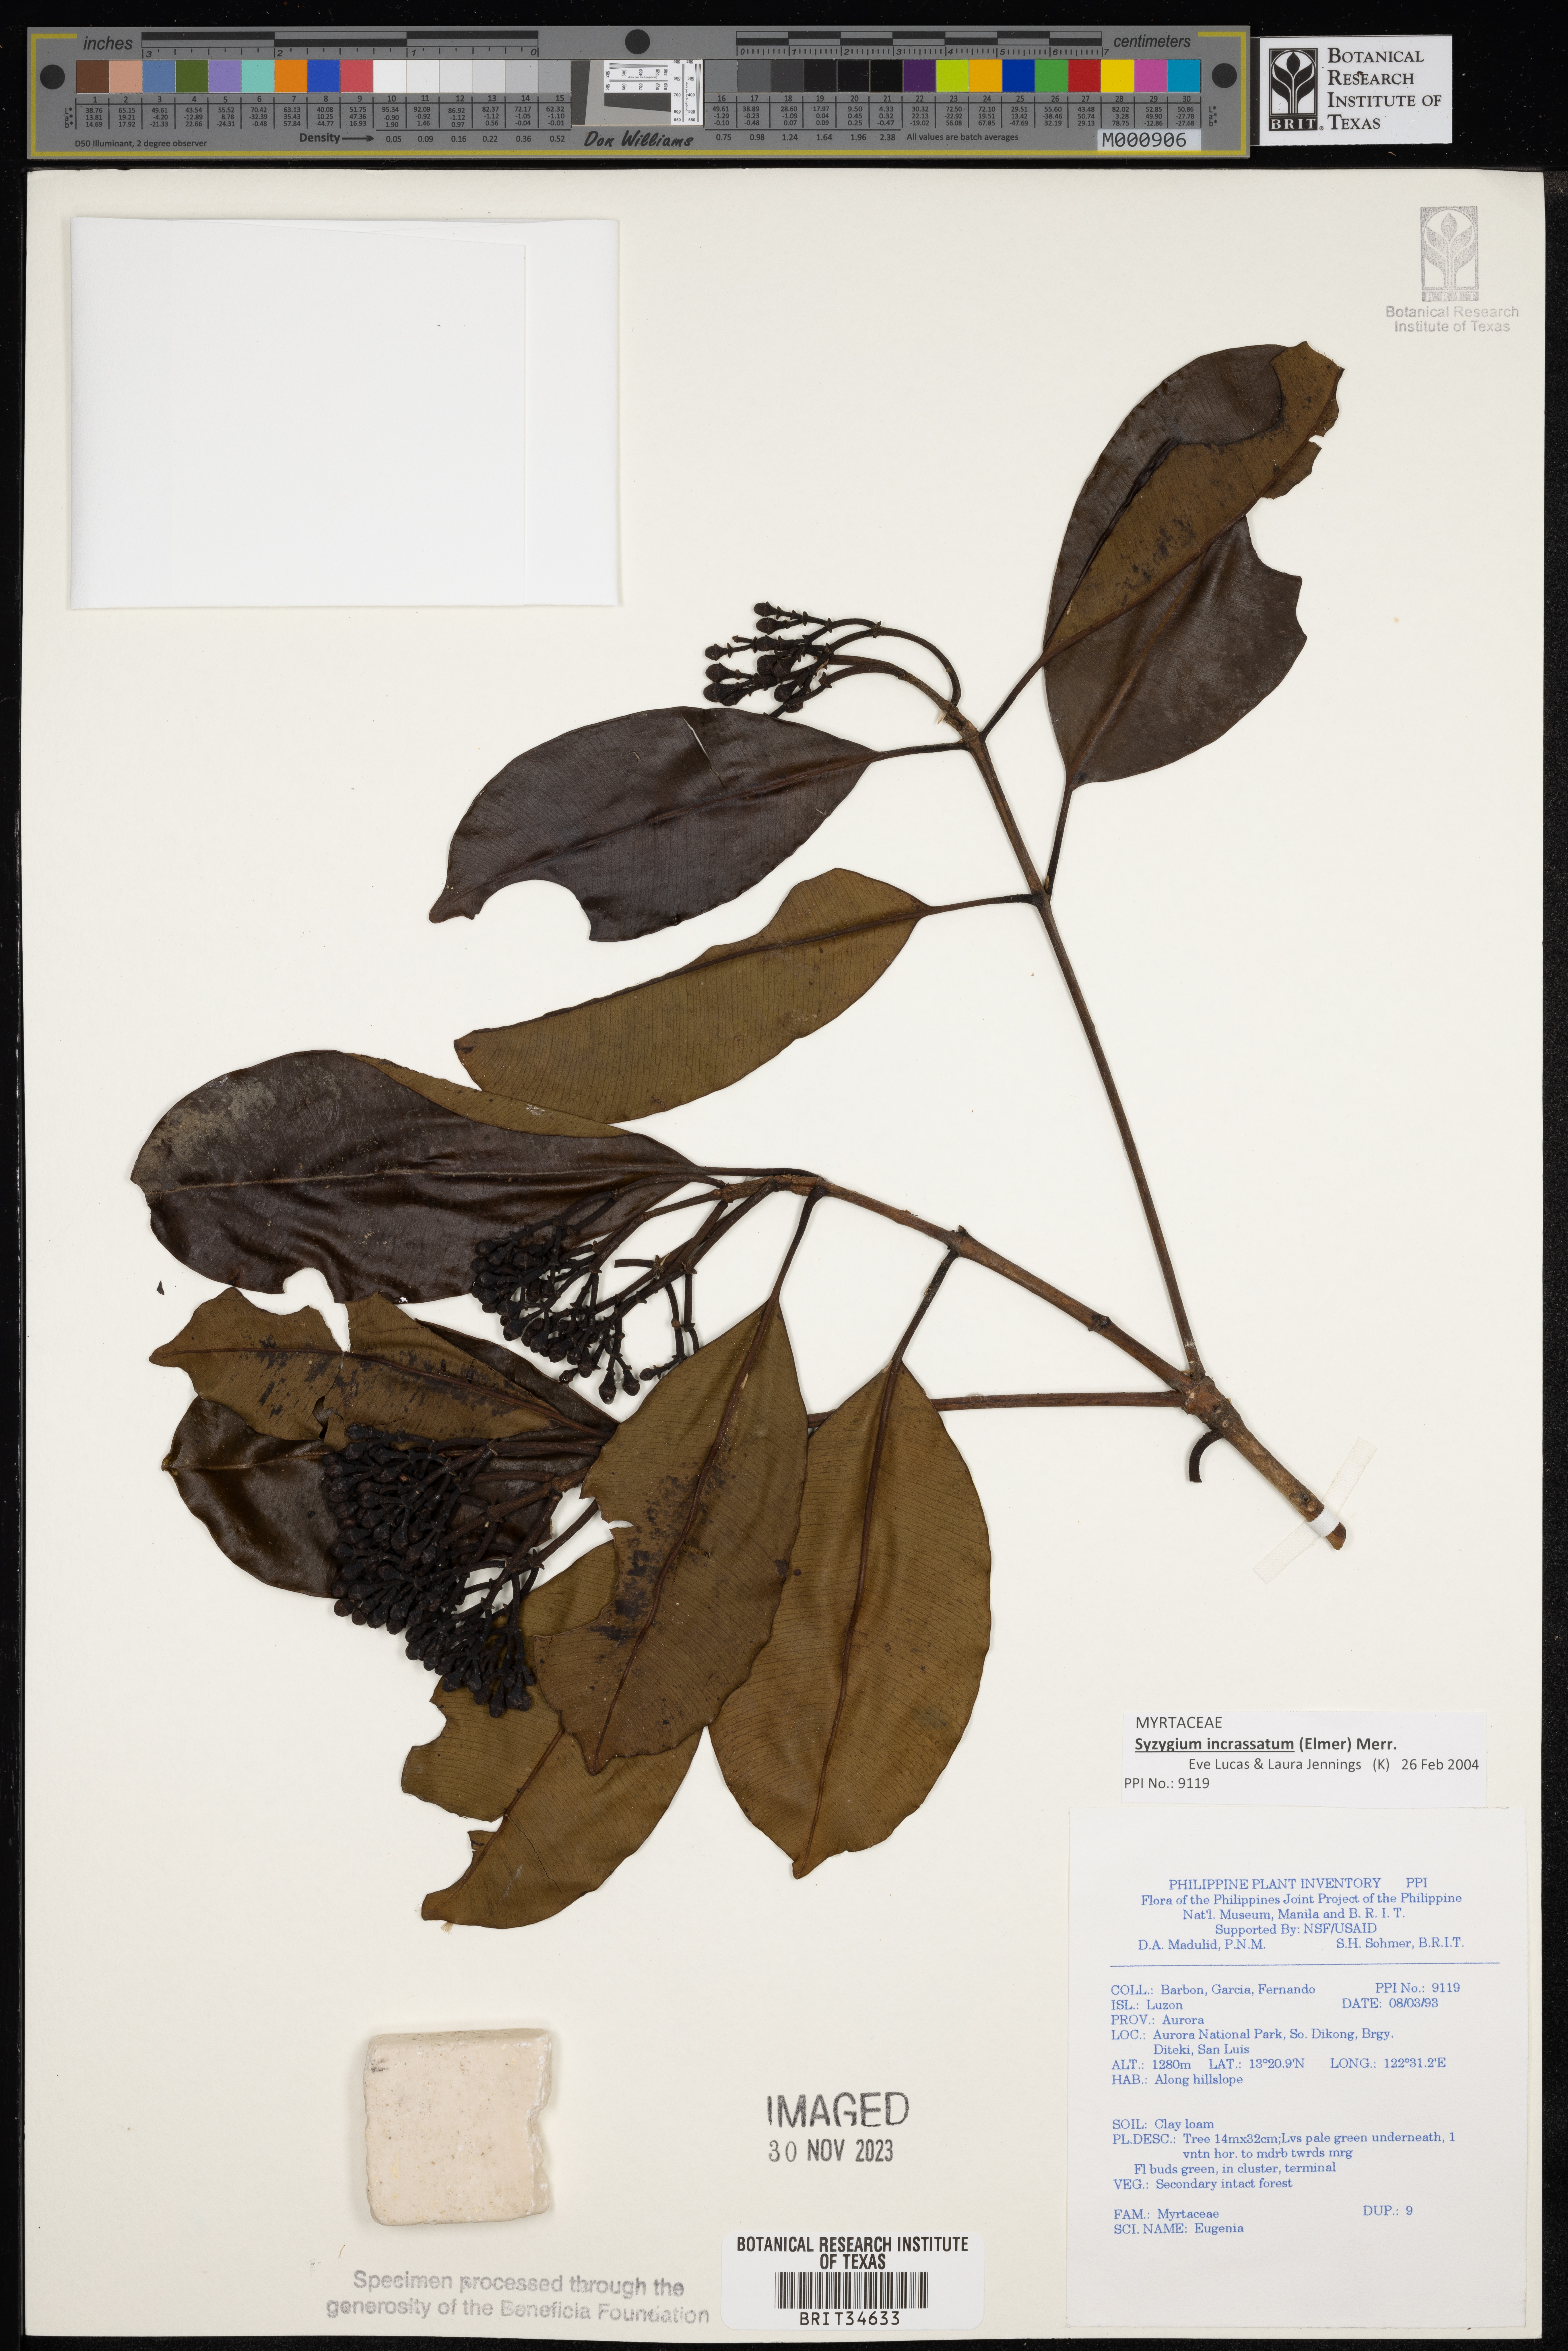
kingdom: Plantae
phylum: Tracheophyta
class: Magnoliopsida
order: Myrtales
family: Myrtaceae
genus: Eugenia
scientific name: Eugenia
